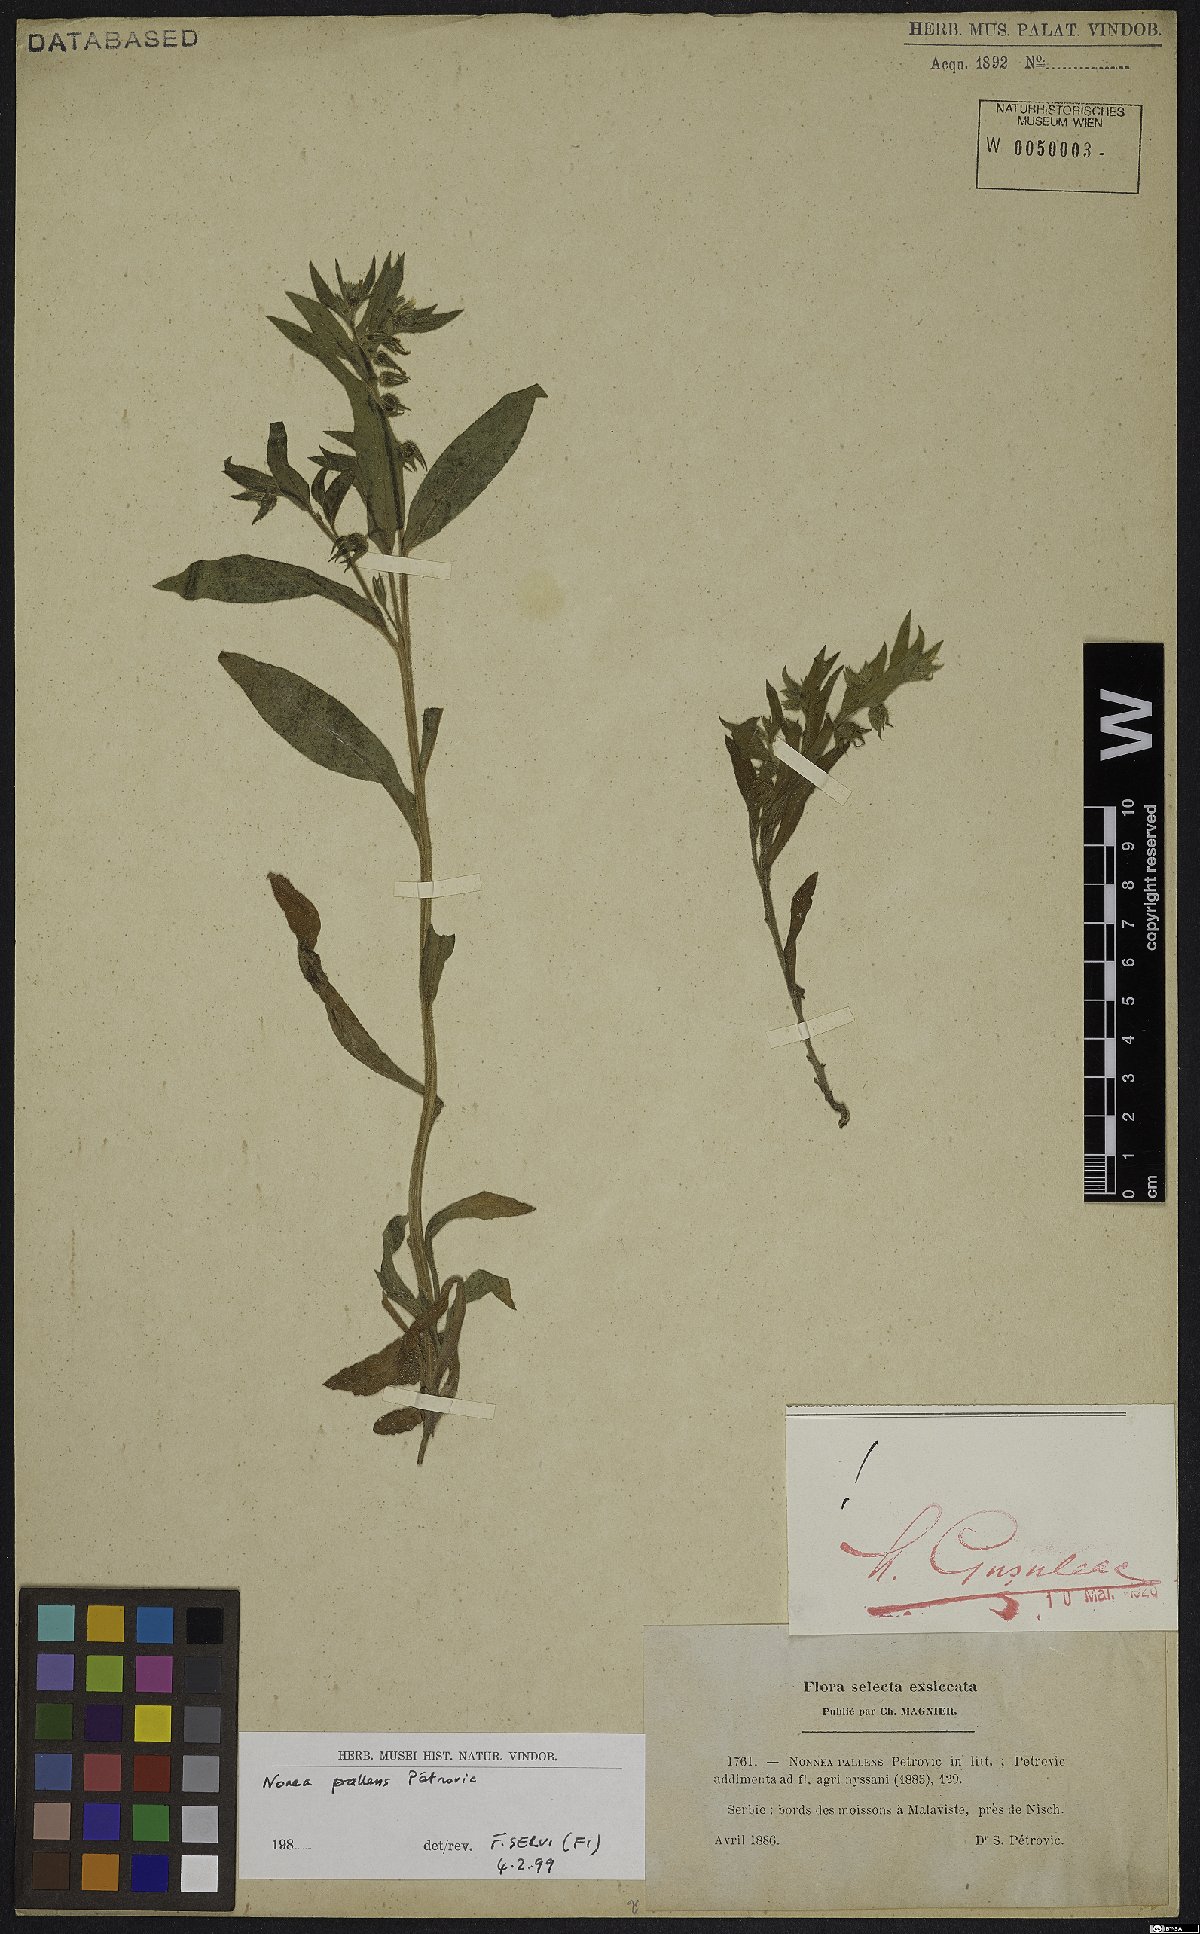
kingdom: Plantae
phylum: Tracheophyta
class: Magnoliopsida
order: Boraginales
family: Boraginaceae
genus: Nonea
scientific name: Nonea pallens
